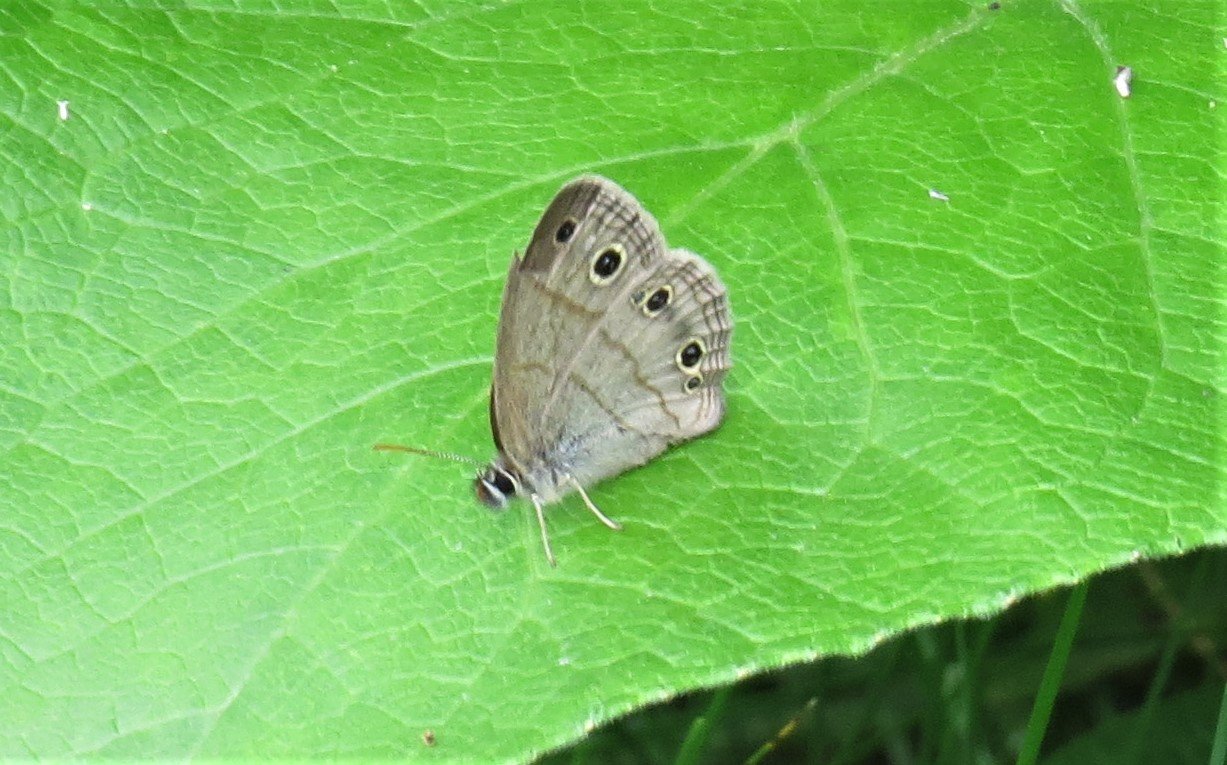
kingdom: Animalia
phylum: Arthropoda
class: Insecta
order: Lepidoptera
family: Nymphalidae
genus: Euptychia
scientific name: Euptychia cymela
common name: Little Wood Satyr
